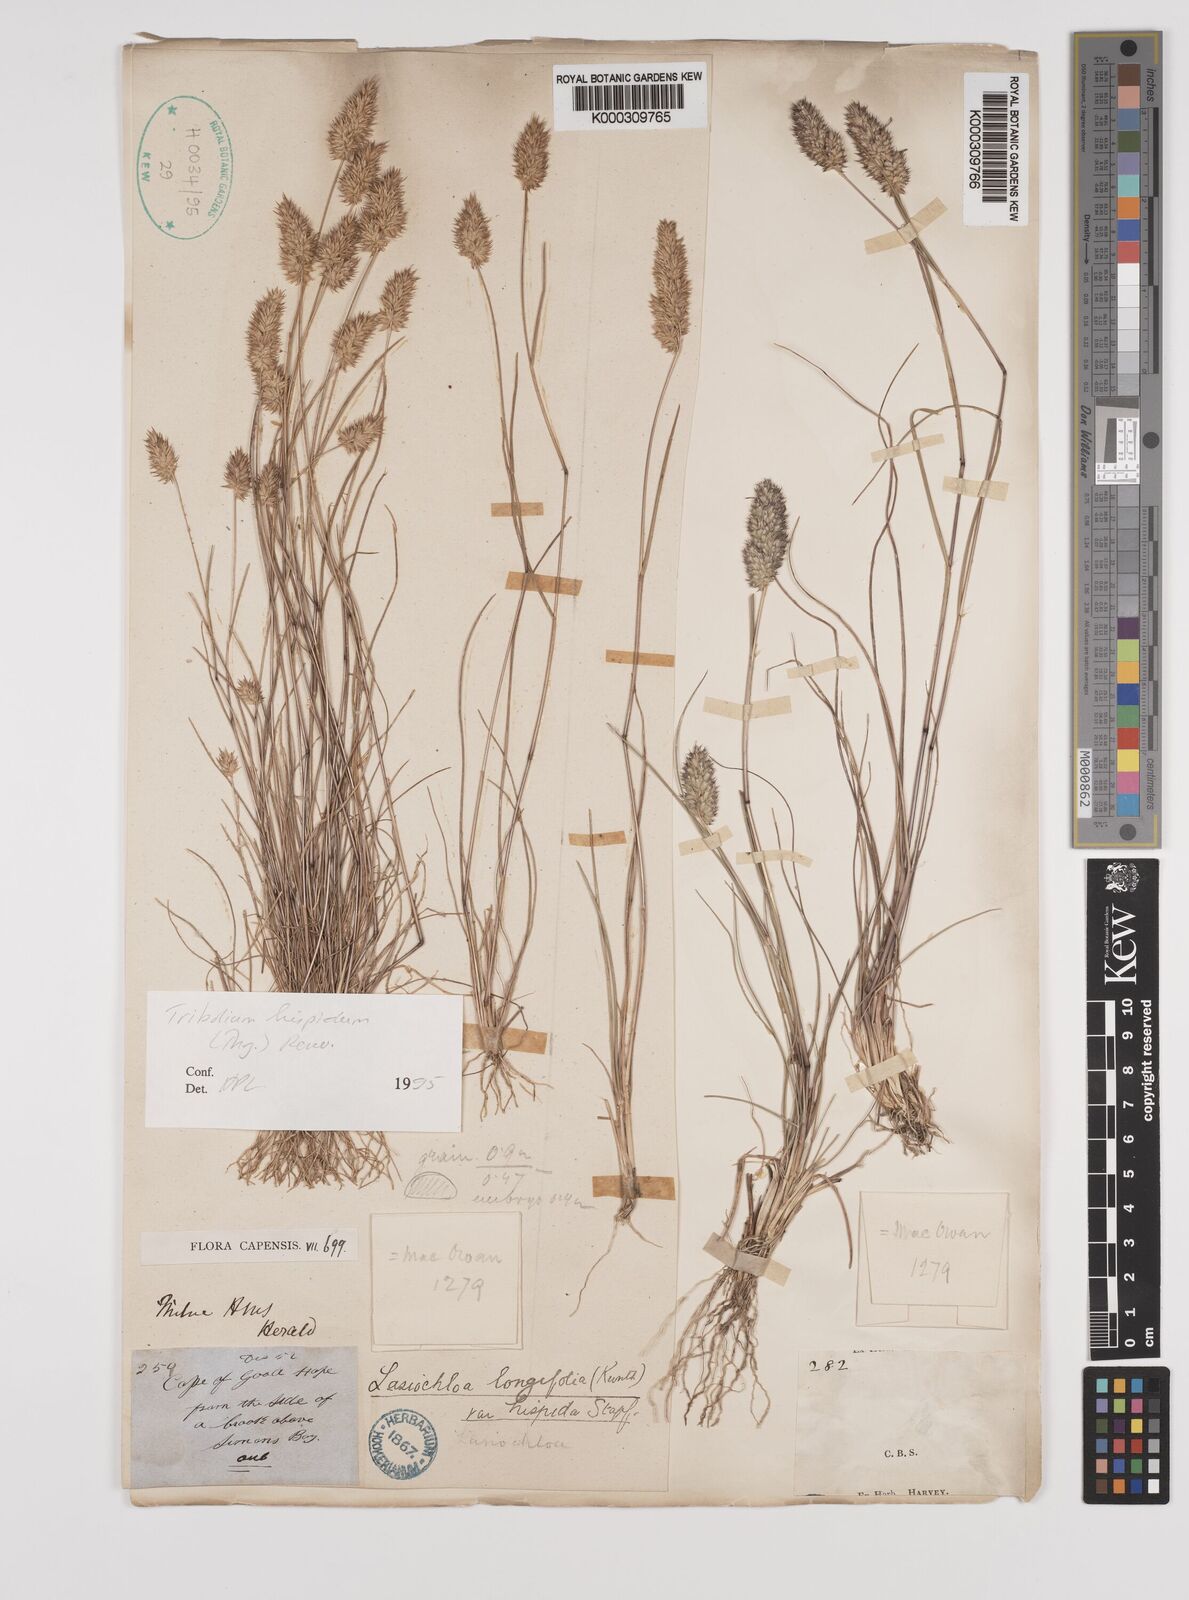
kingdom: Plantae
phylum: Tracheophyta
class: Liliopsida
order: Poales
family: Poaceae
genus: Tribolium
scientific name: Tribolium hispidum
